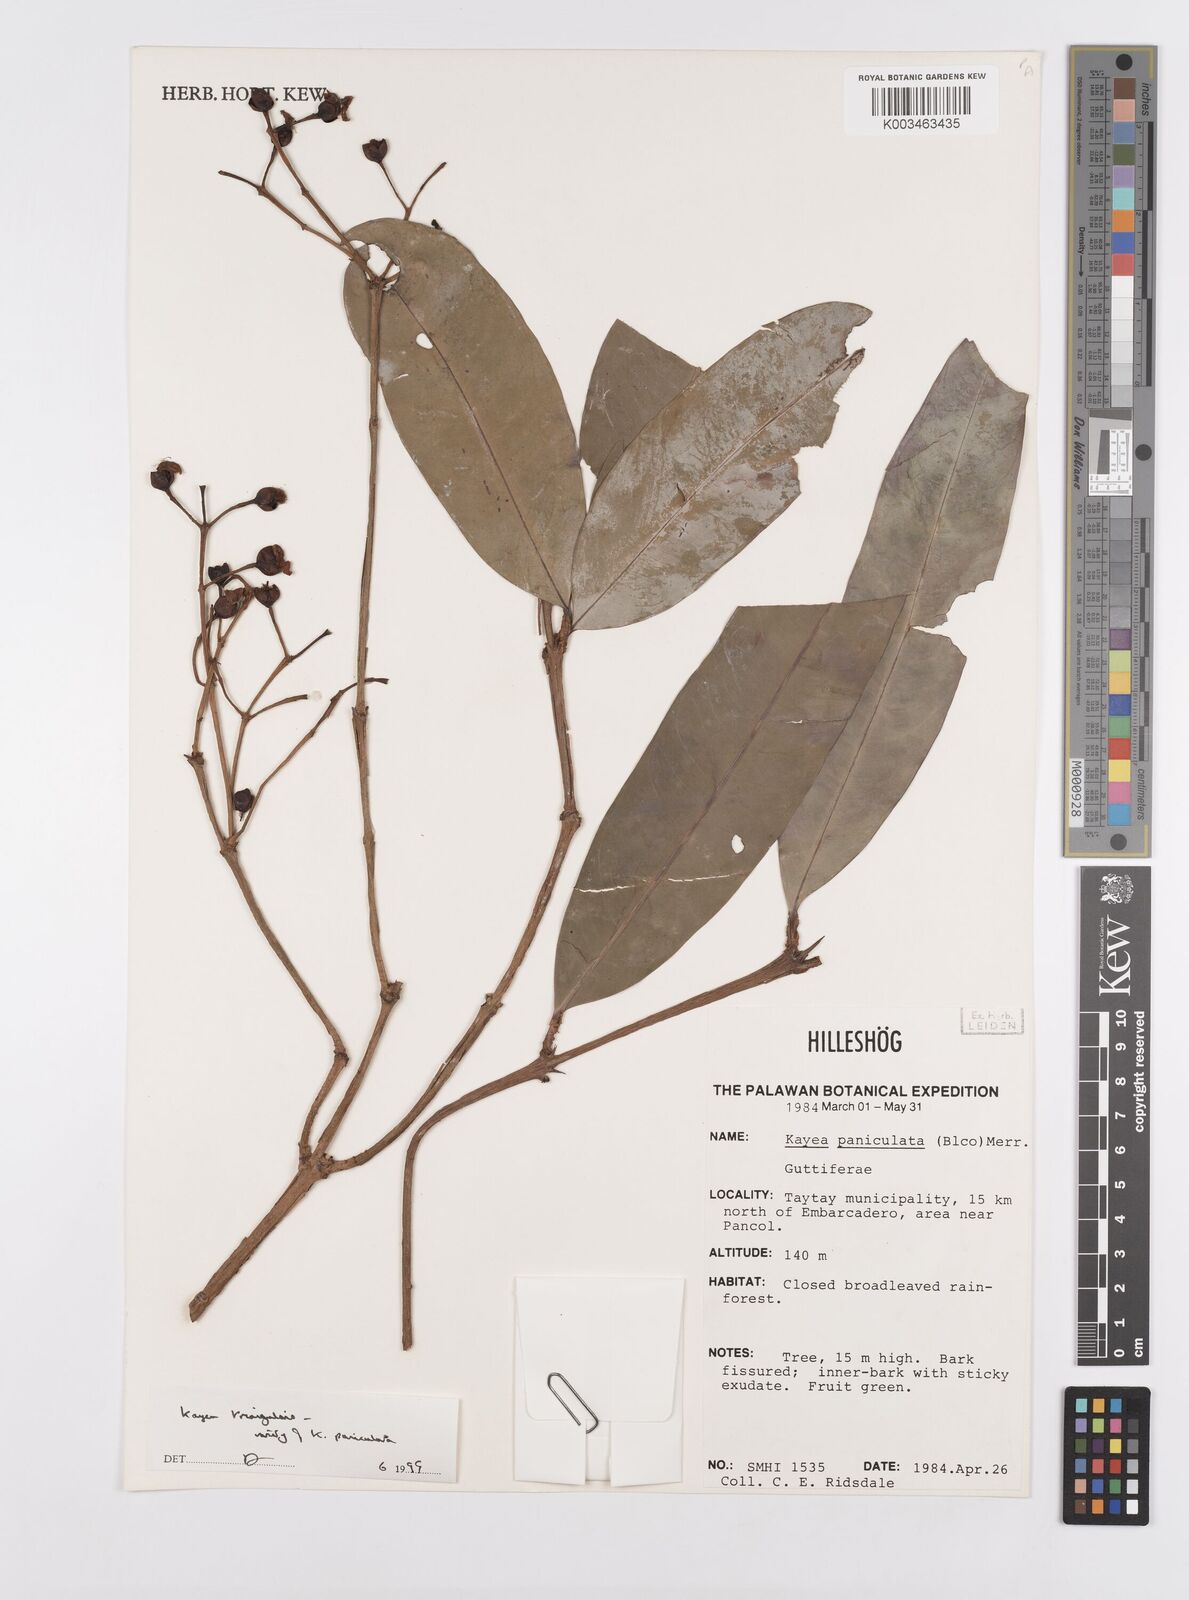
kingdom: Plantae
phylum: Tracheophyta
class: Magnoliopsida
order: Malpighiales
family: Calophyllaceae
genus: Kayea
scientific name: Kayea
